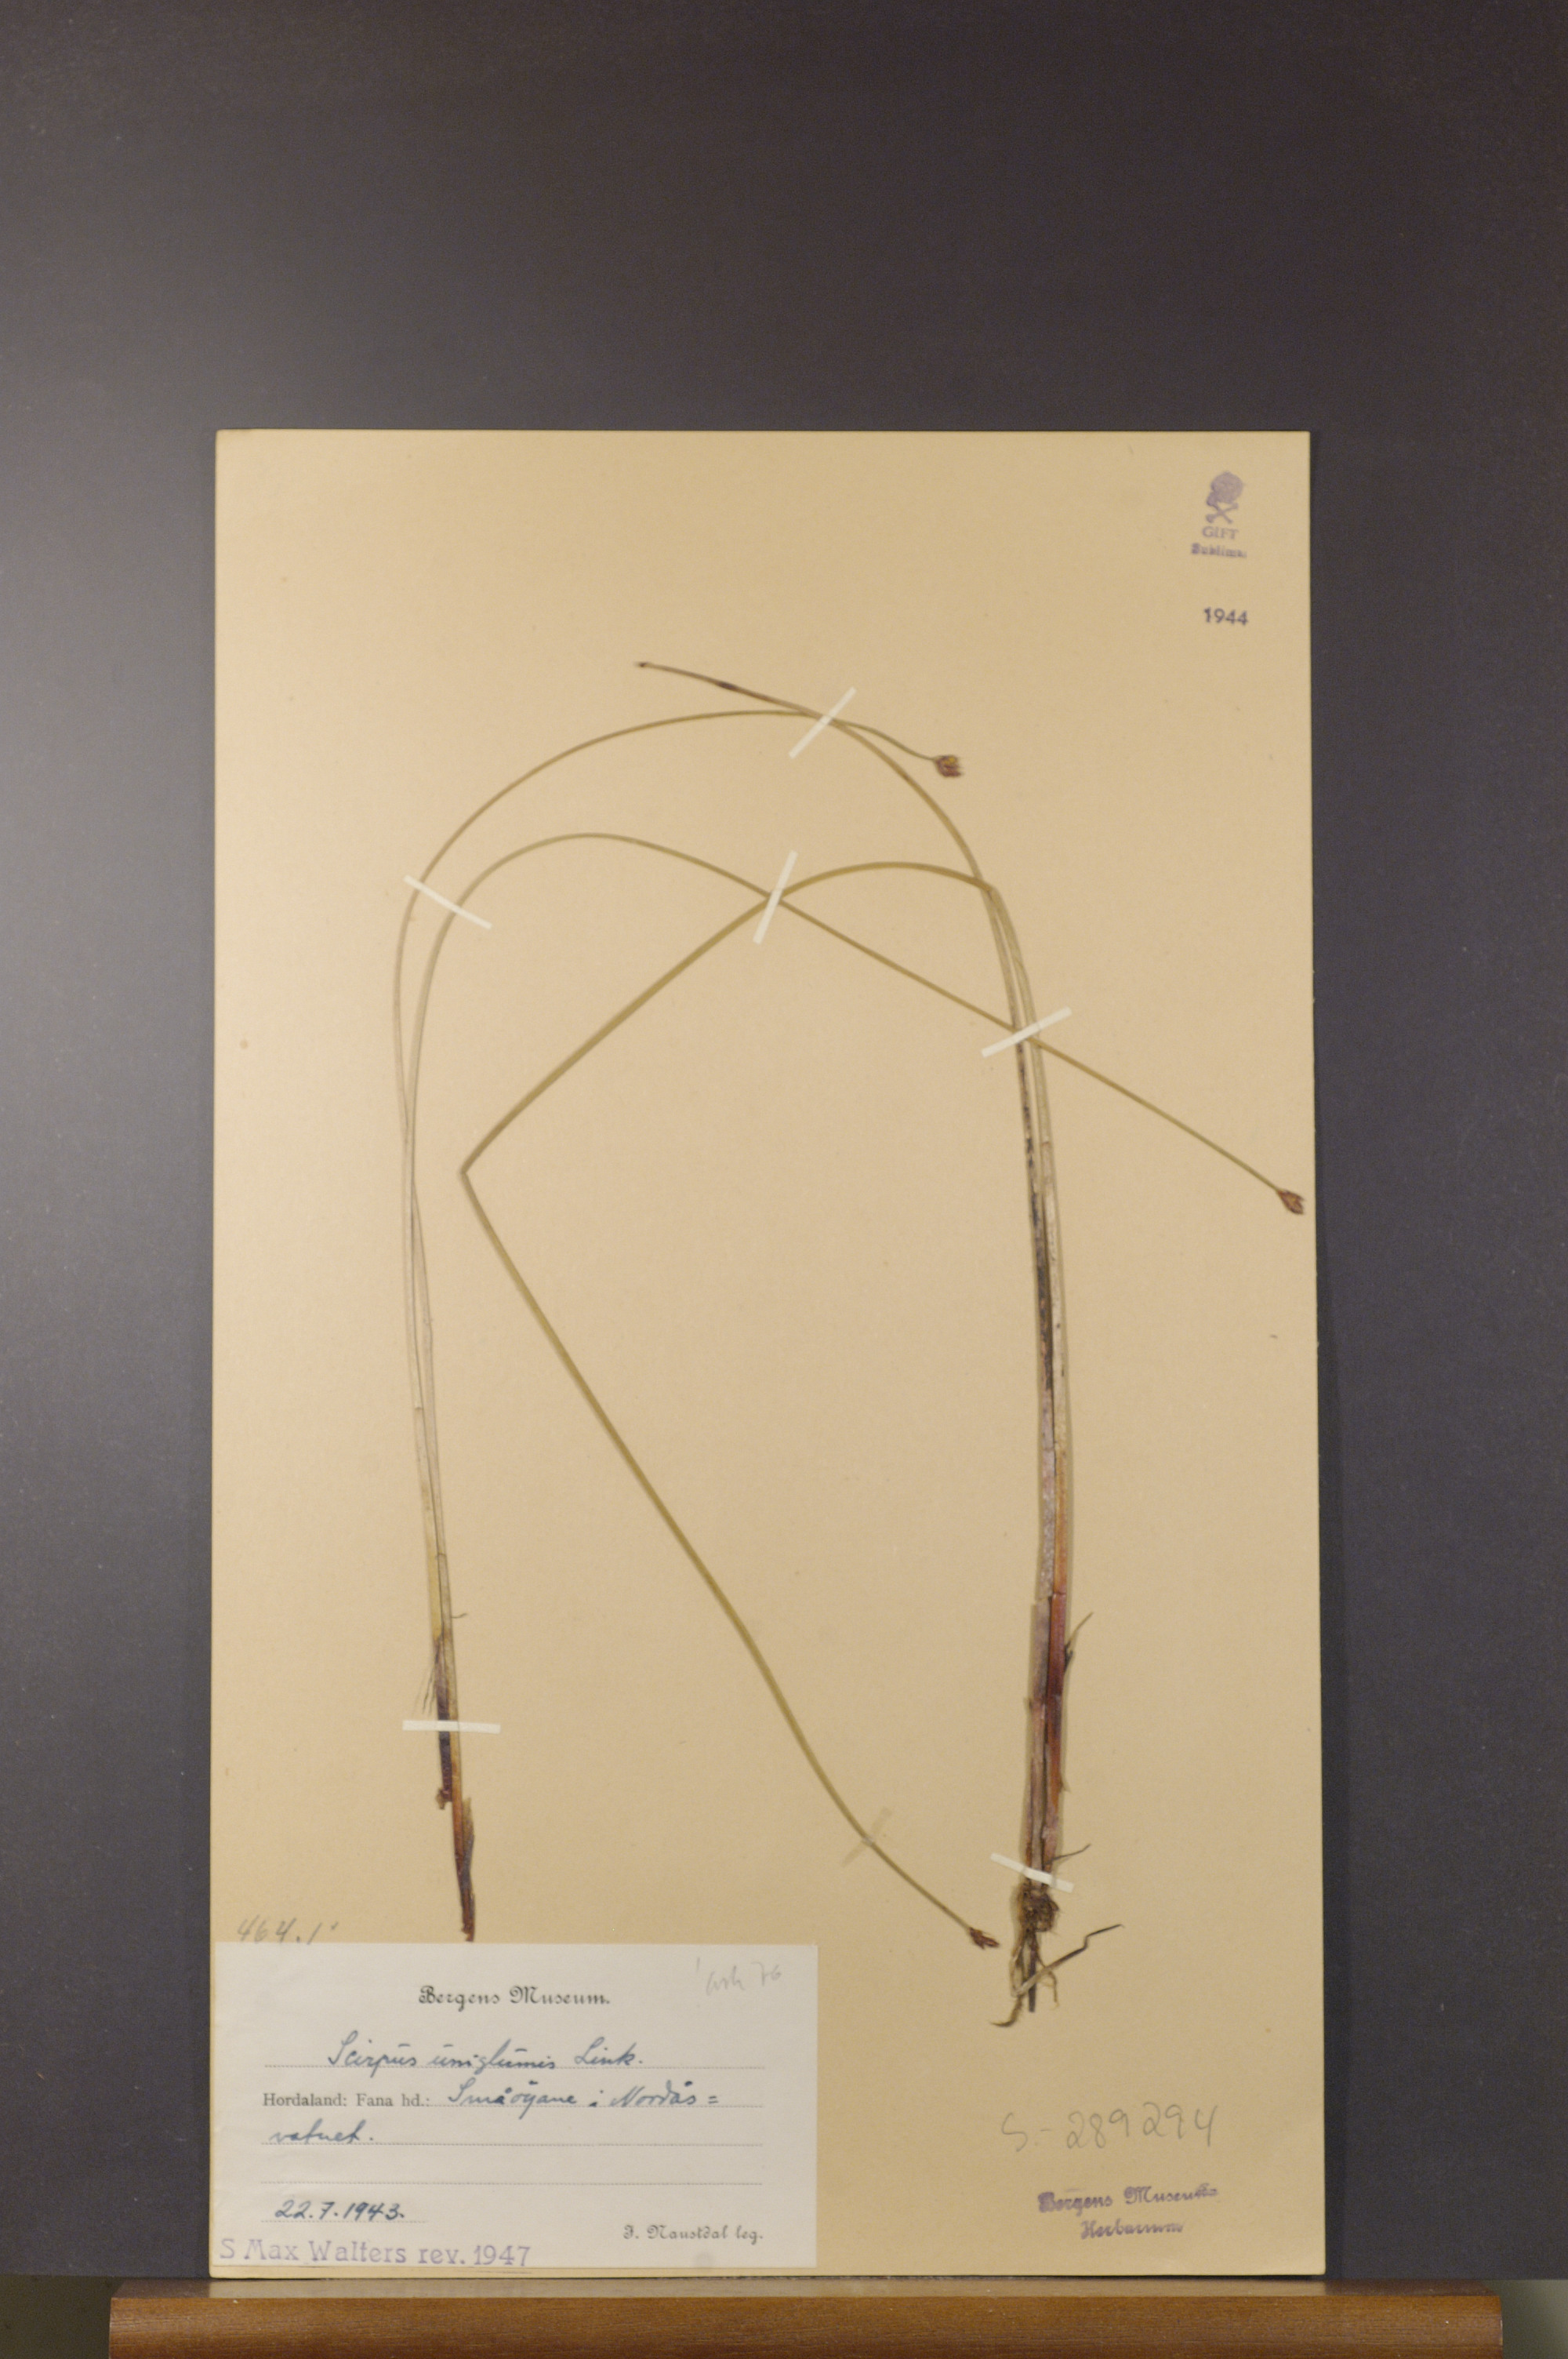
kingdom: Plantae
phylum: Tracheophyta
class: Liliopsida
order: Poales
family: Cyperaceae
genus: Eleocharis
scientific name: Eleocharis uniglumis
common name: Slender spike-rush
